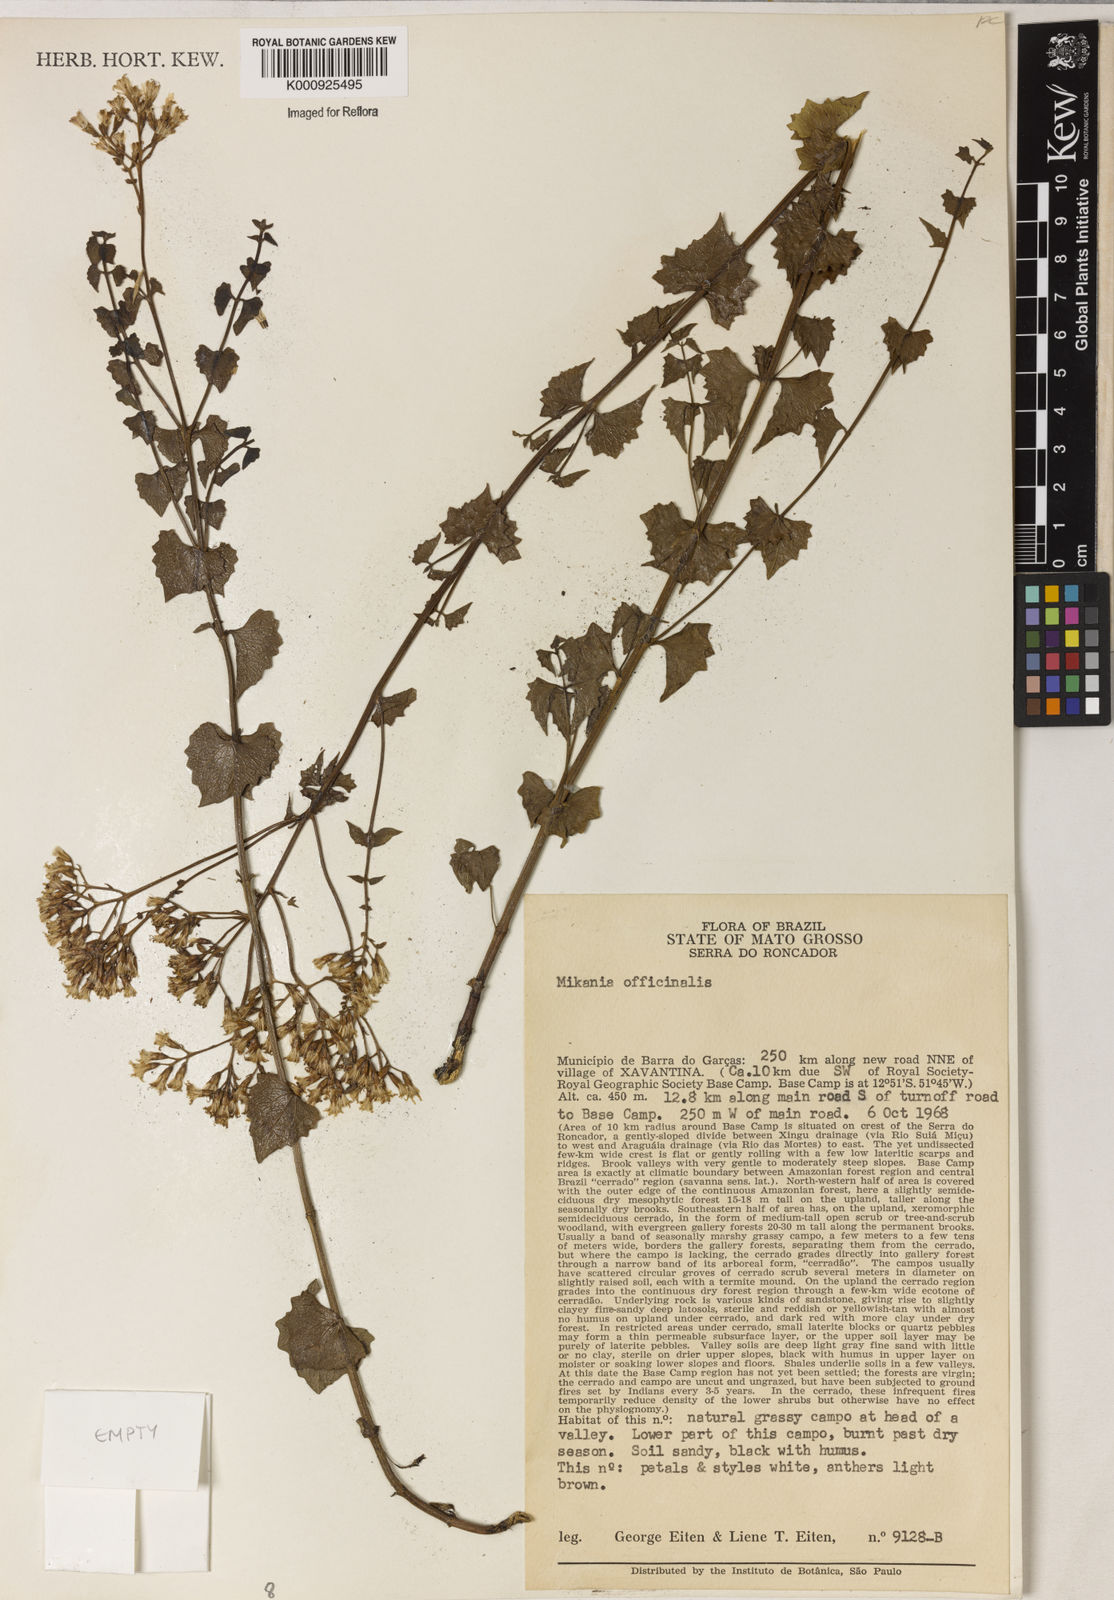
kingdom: Plantae
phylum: Tracheophyta
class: Magnoliopsida
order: Asterales
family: Asteraceae
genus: Mikania
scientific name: Mikania officinalis
